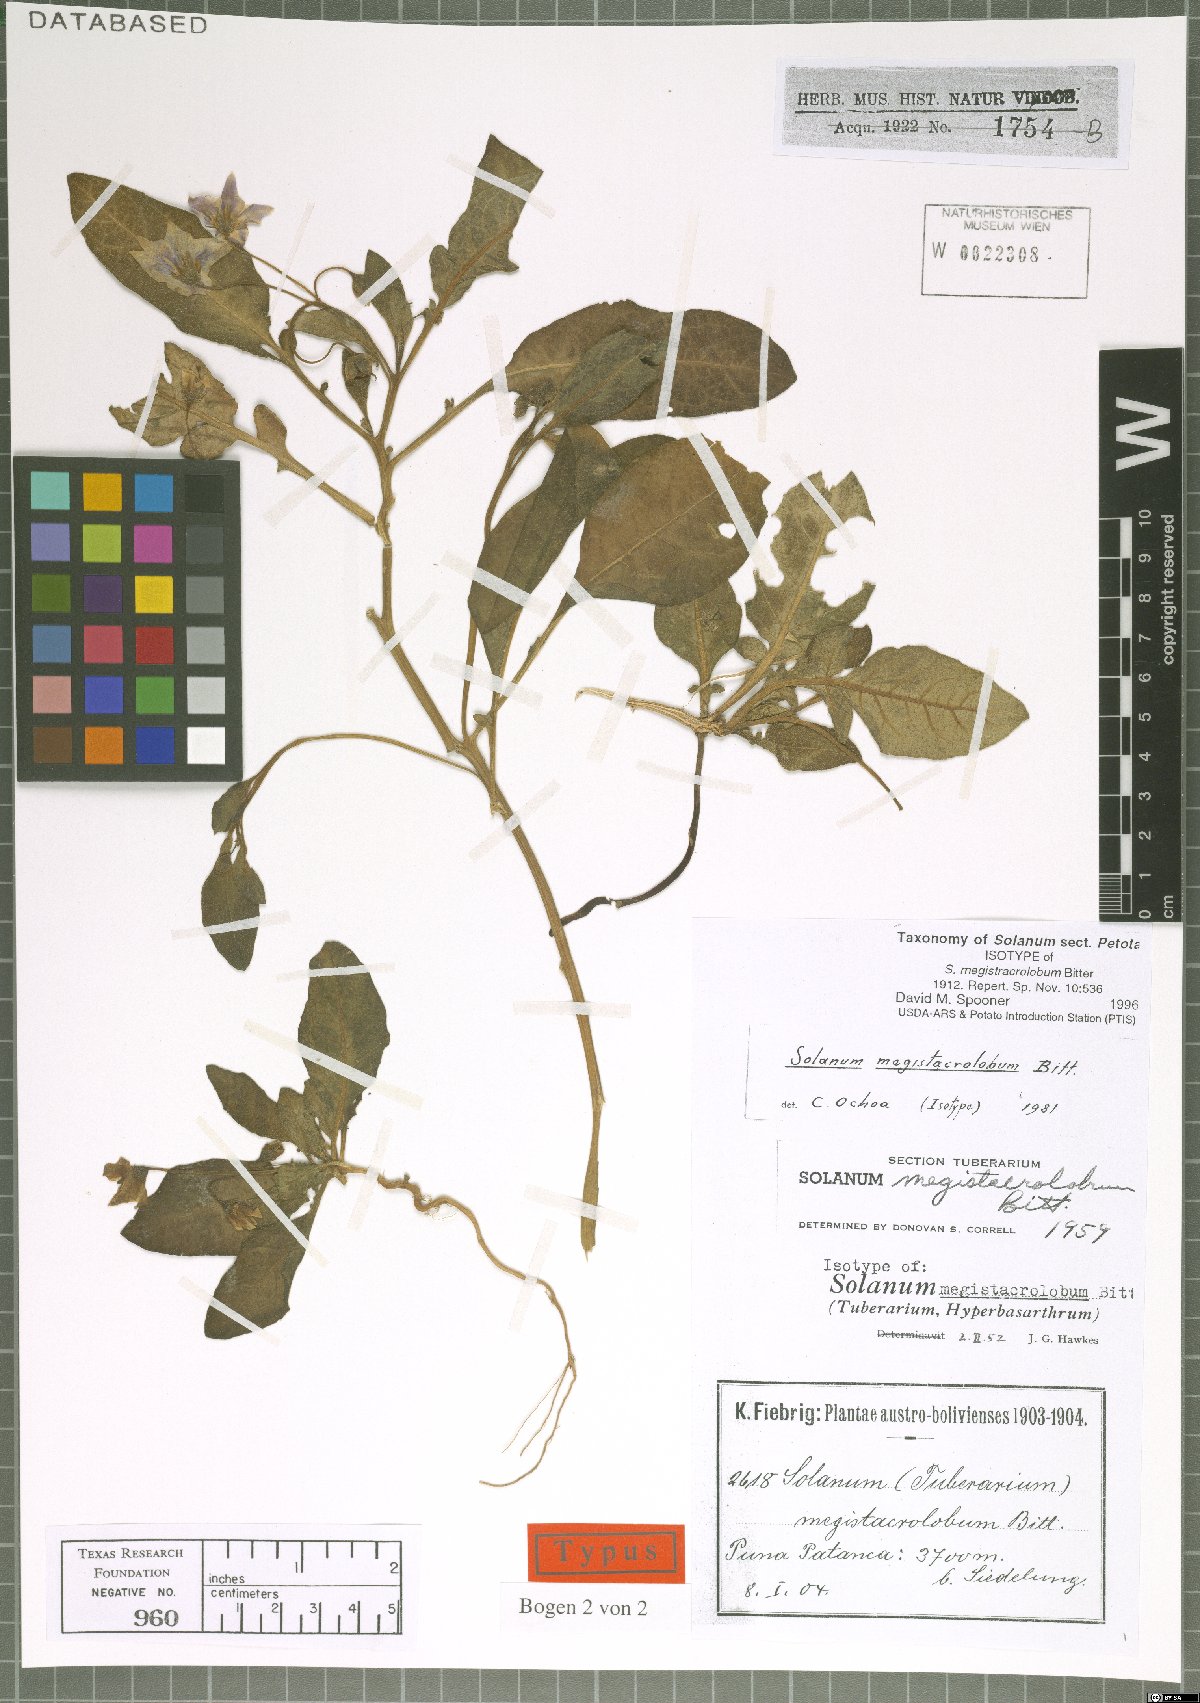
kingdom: Plantae
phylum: Tracheophyta
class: Magnoliopsida
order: Solanales
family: Solanaceae
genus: Solanum
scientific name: Solanum boliviense
